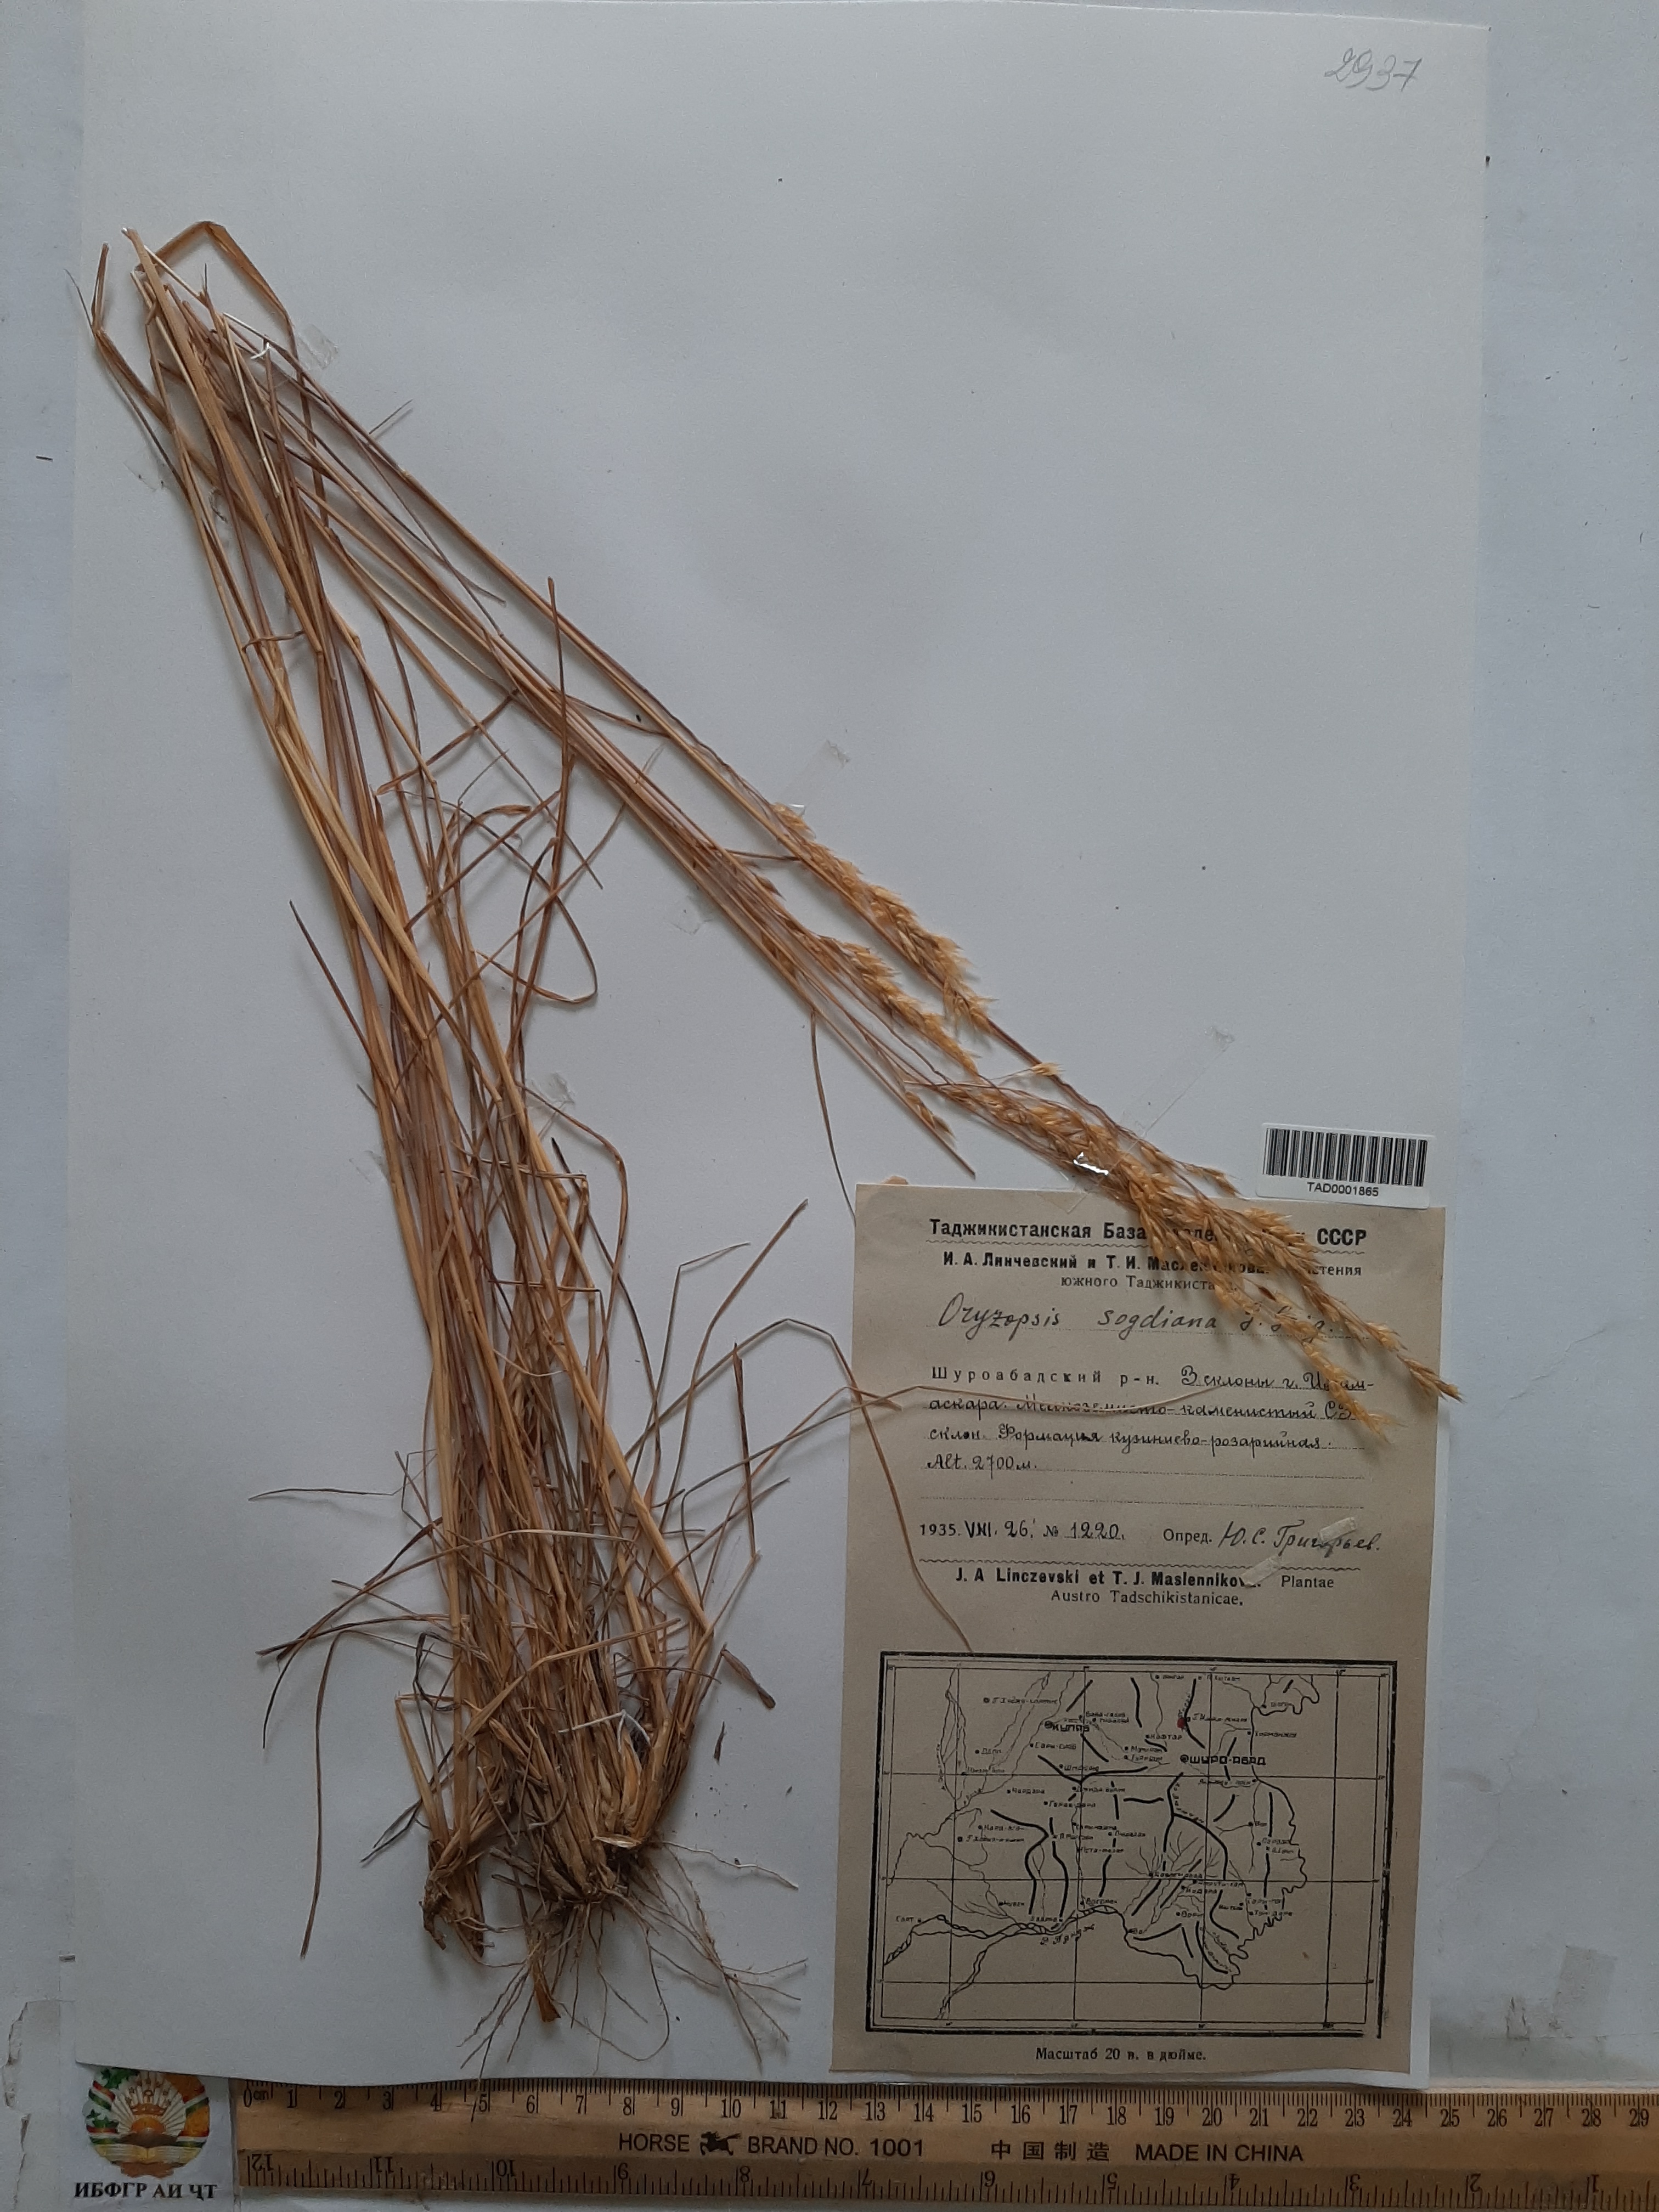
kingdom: Plantae
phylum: Tracheophyta
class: Liliopsida
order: Poales
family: Poaceae
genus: Piptatherum
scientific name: Piptatherum sogdianum
